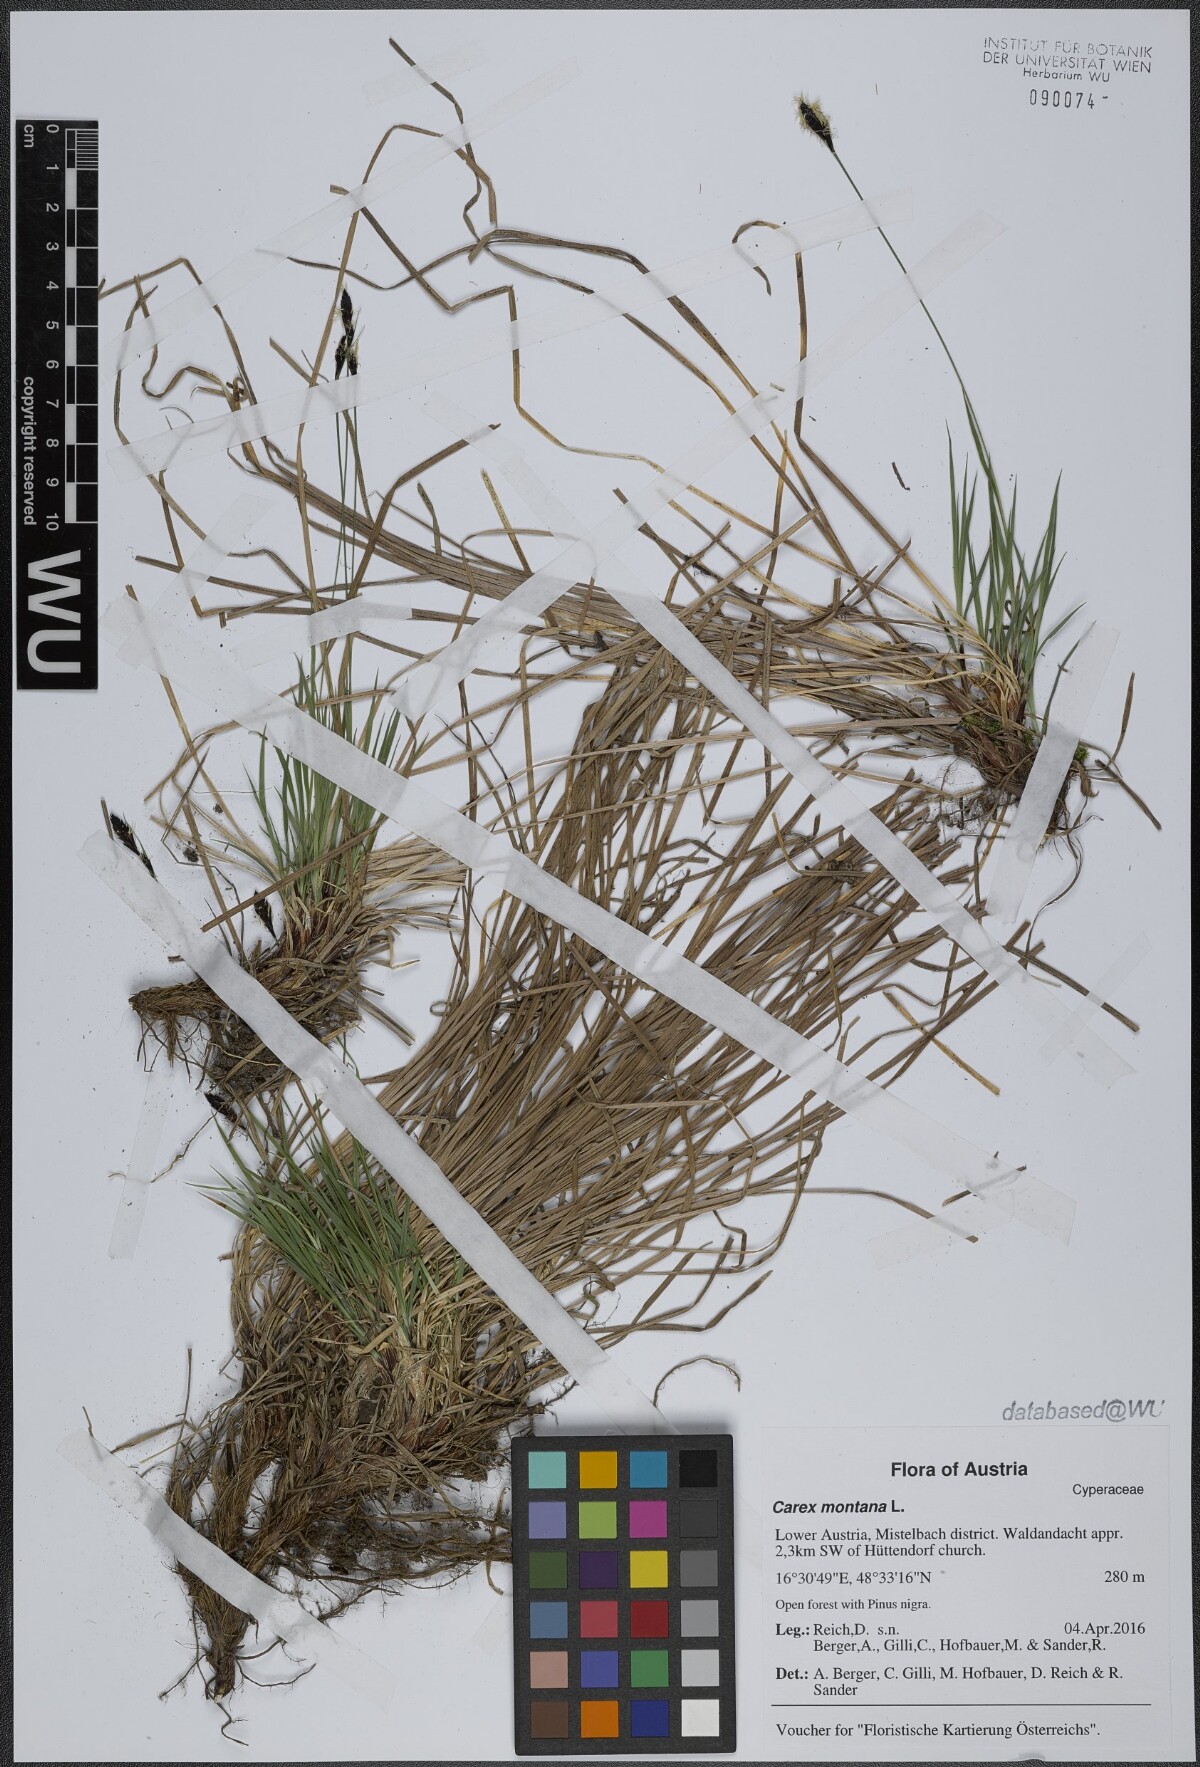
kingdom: Plantae
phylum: Tracheophyta
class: Liliopsida
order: Poales
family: Cyperaceae
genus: Carex
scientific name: Carex montana
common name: Soft-leaved sedge
